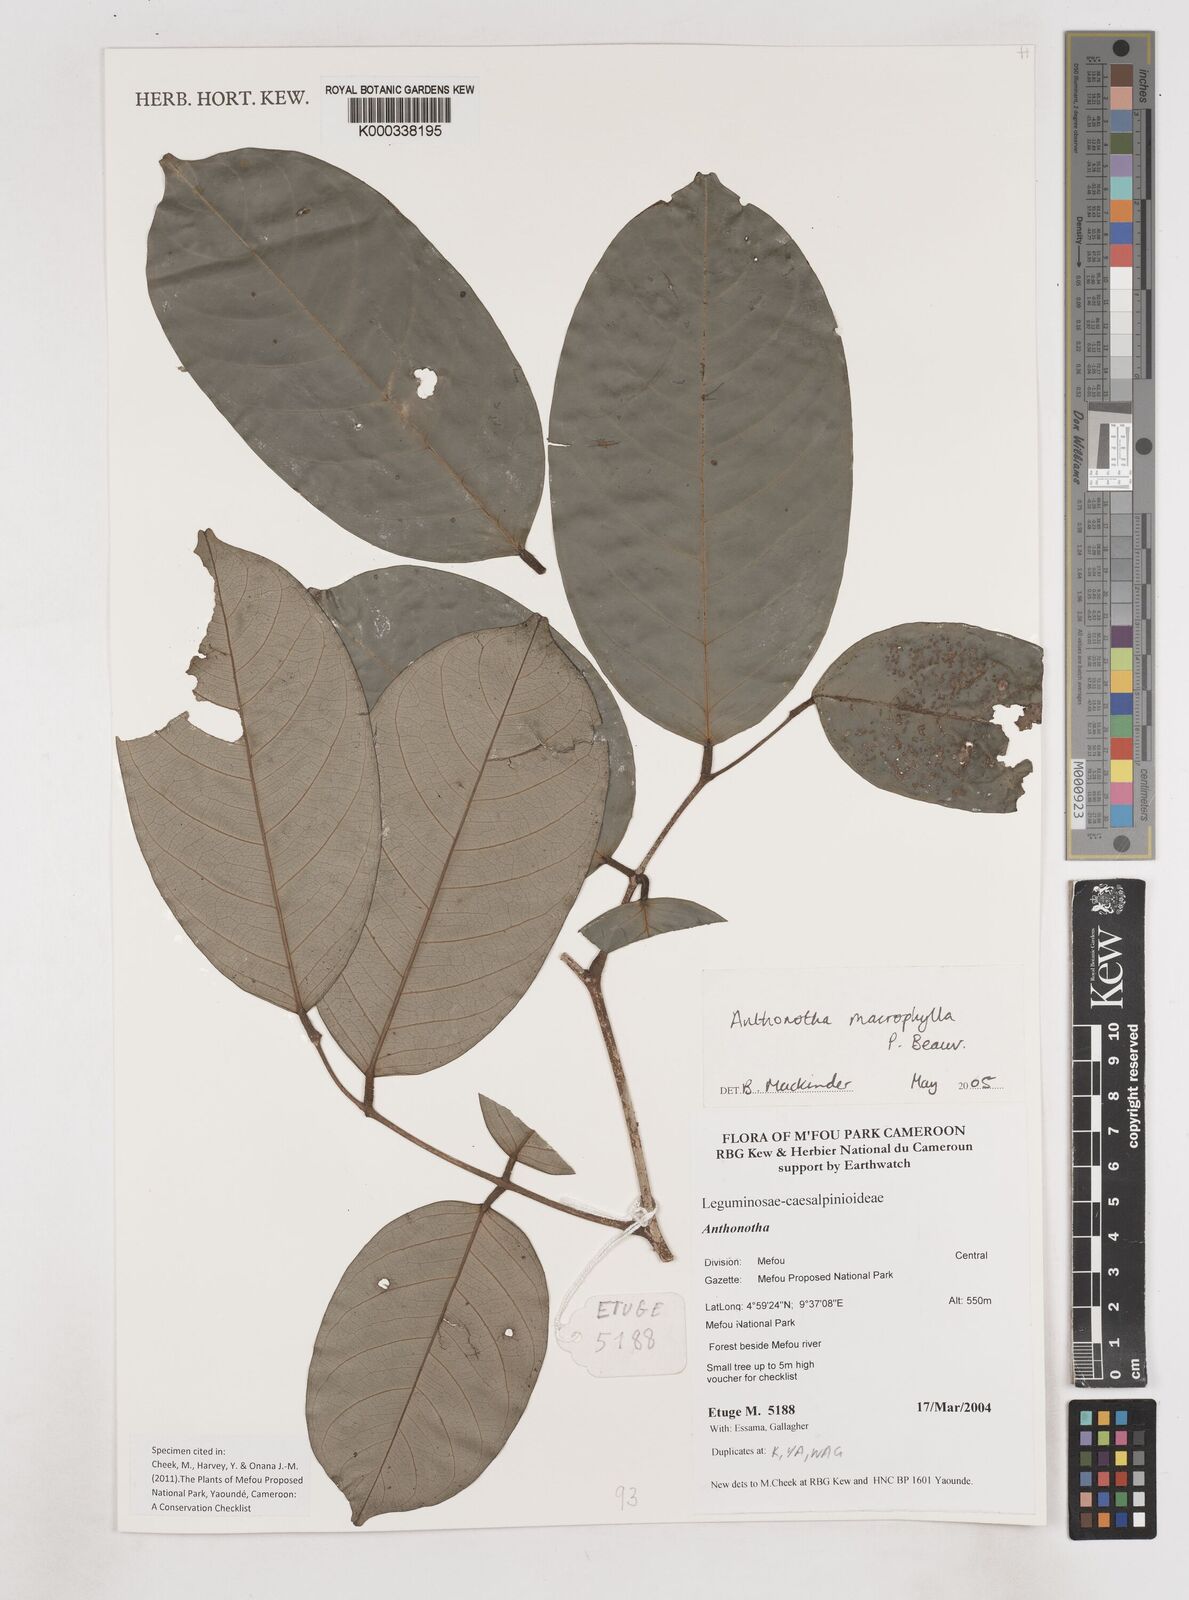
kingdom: Plantae
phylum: Tracheophyta
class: Magnoliopsida
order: Fabales
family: Fabaceae
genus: Anthonotha
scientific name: Anthonotha macrophylla
